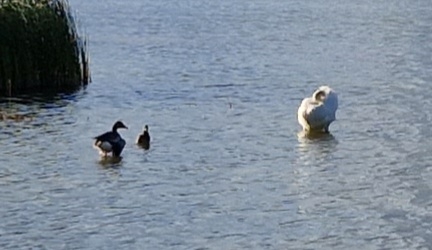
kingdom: Animalia
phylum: Chordata
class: Aves
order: Anseriformes
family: Anatidae
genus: Cygnus
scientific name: Cygnus olor
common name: Knopsvane
